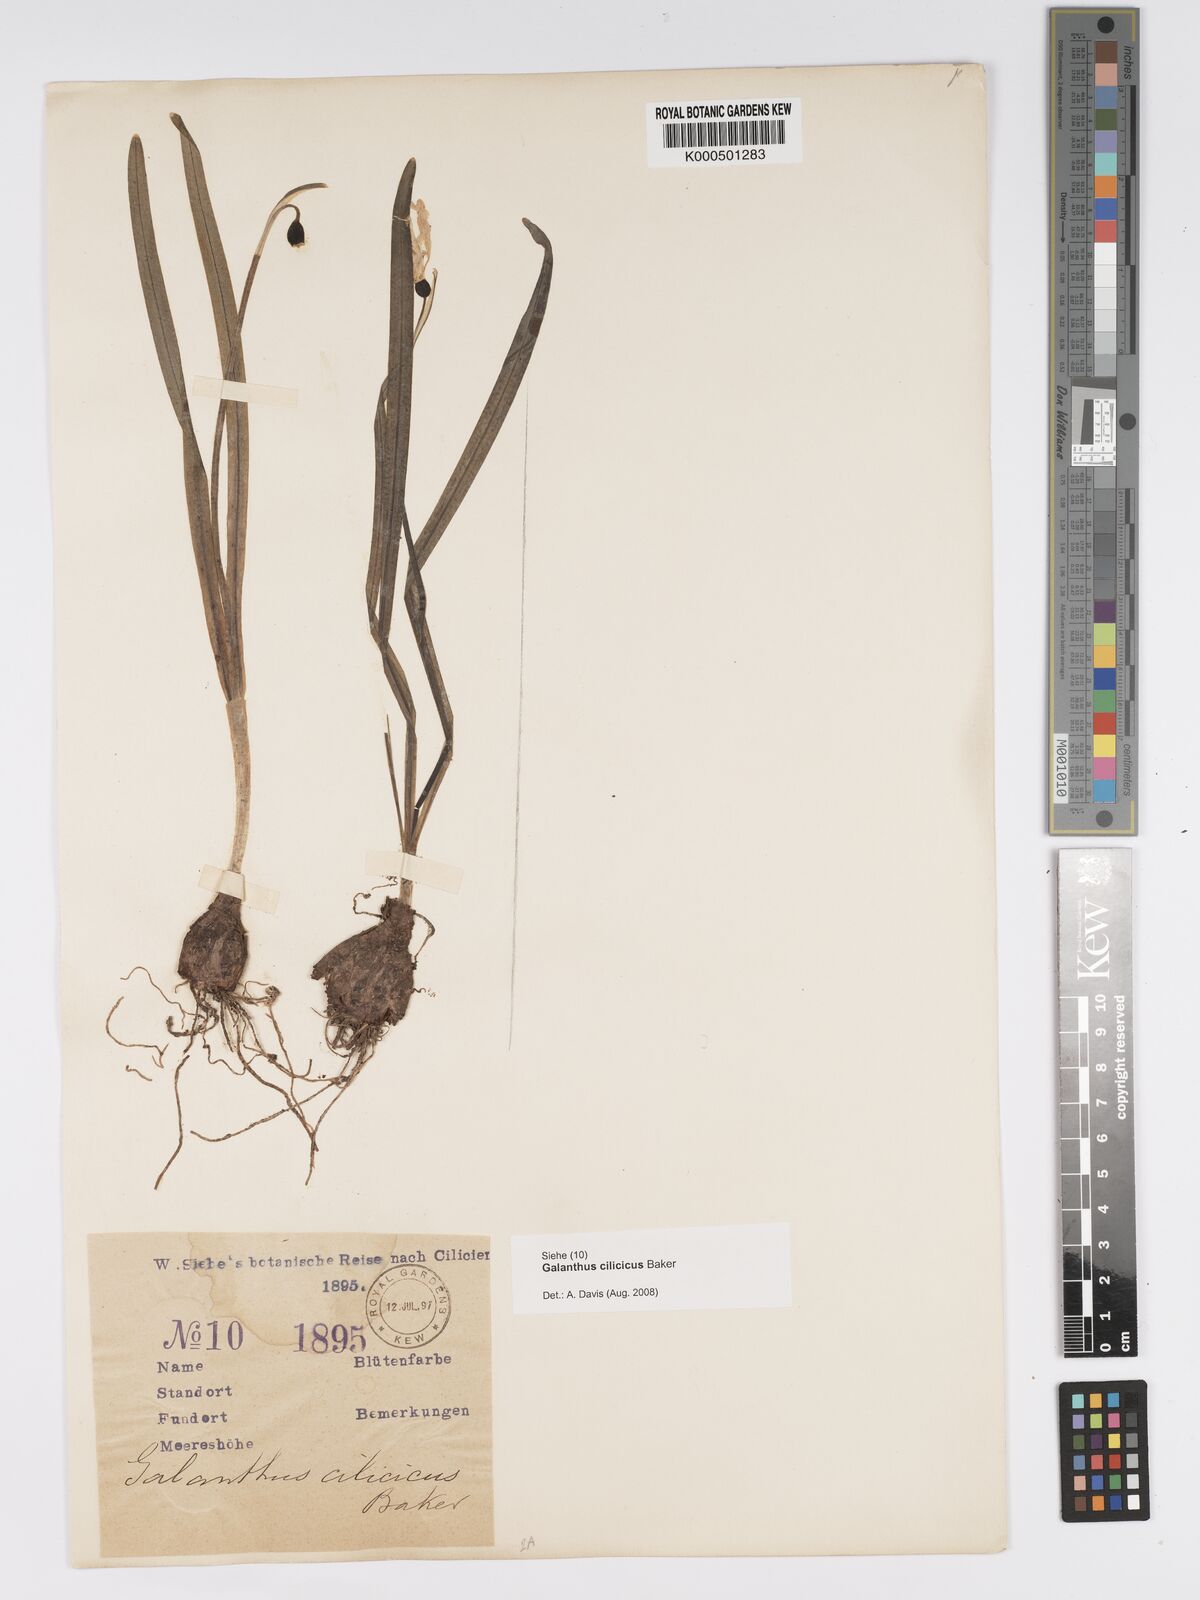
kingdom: Plantae
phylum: Tracheophyta
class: Liliopsida
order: Asparagales
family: Amaryllidaceae
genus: Galanthus
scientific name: Galanthus cilicicus
